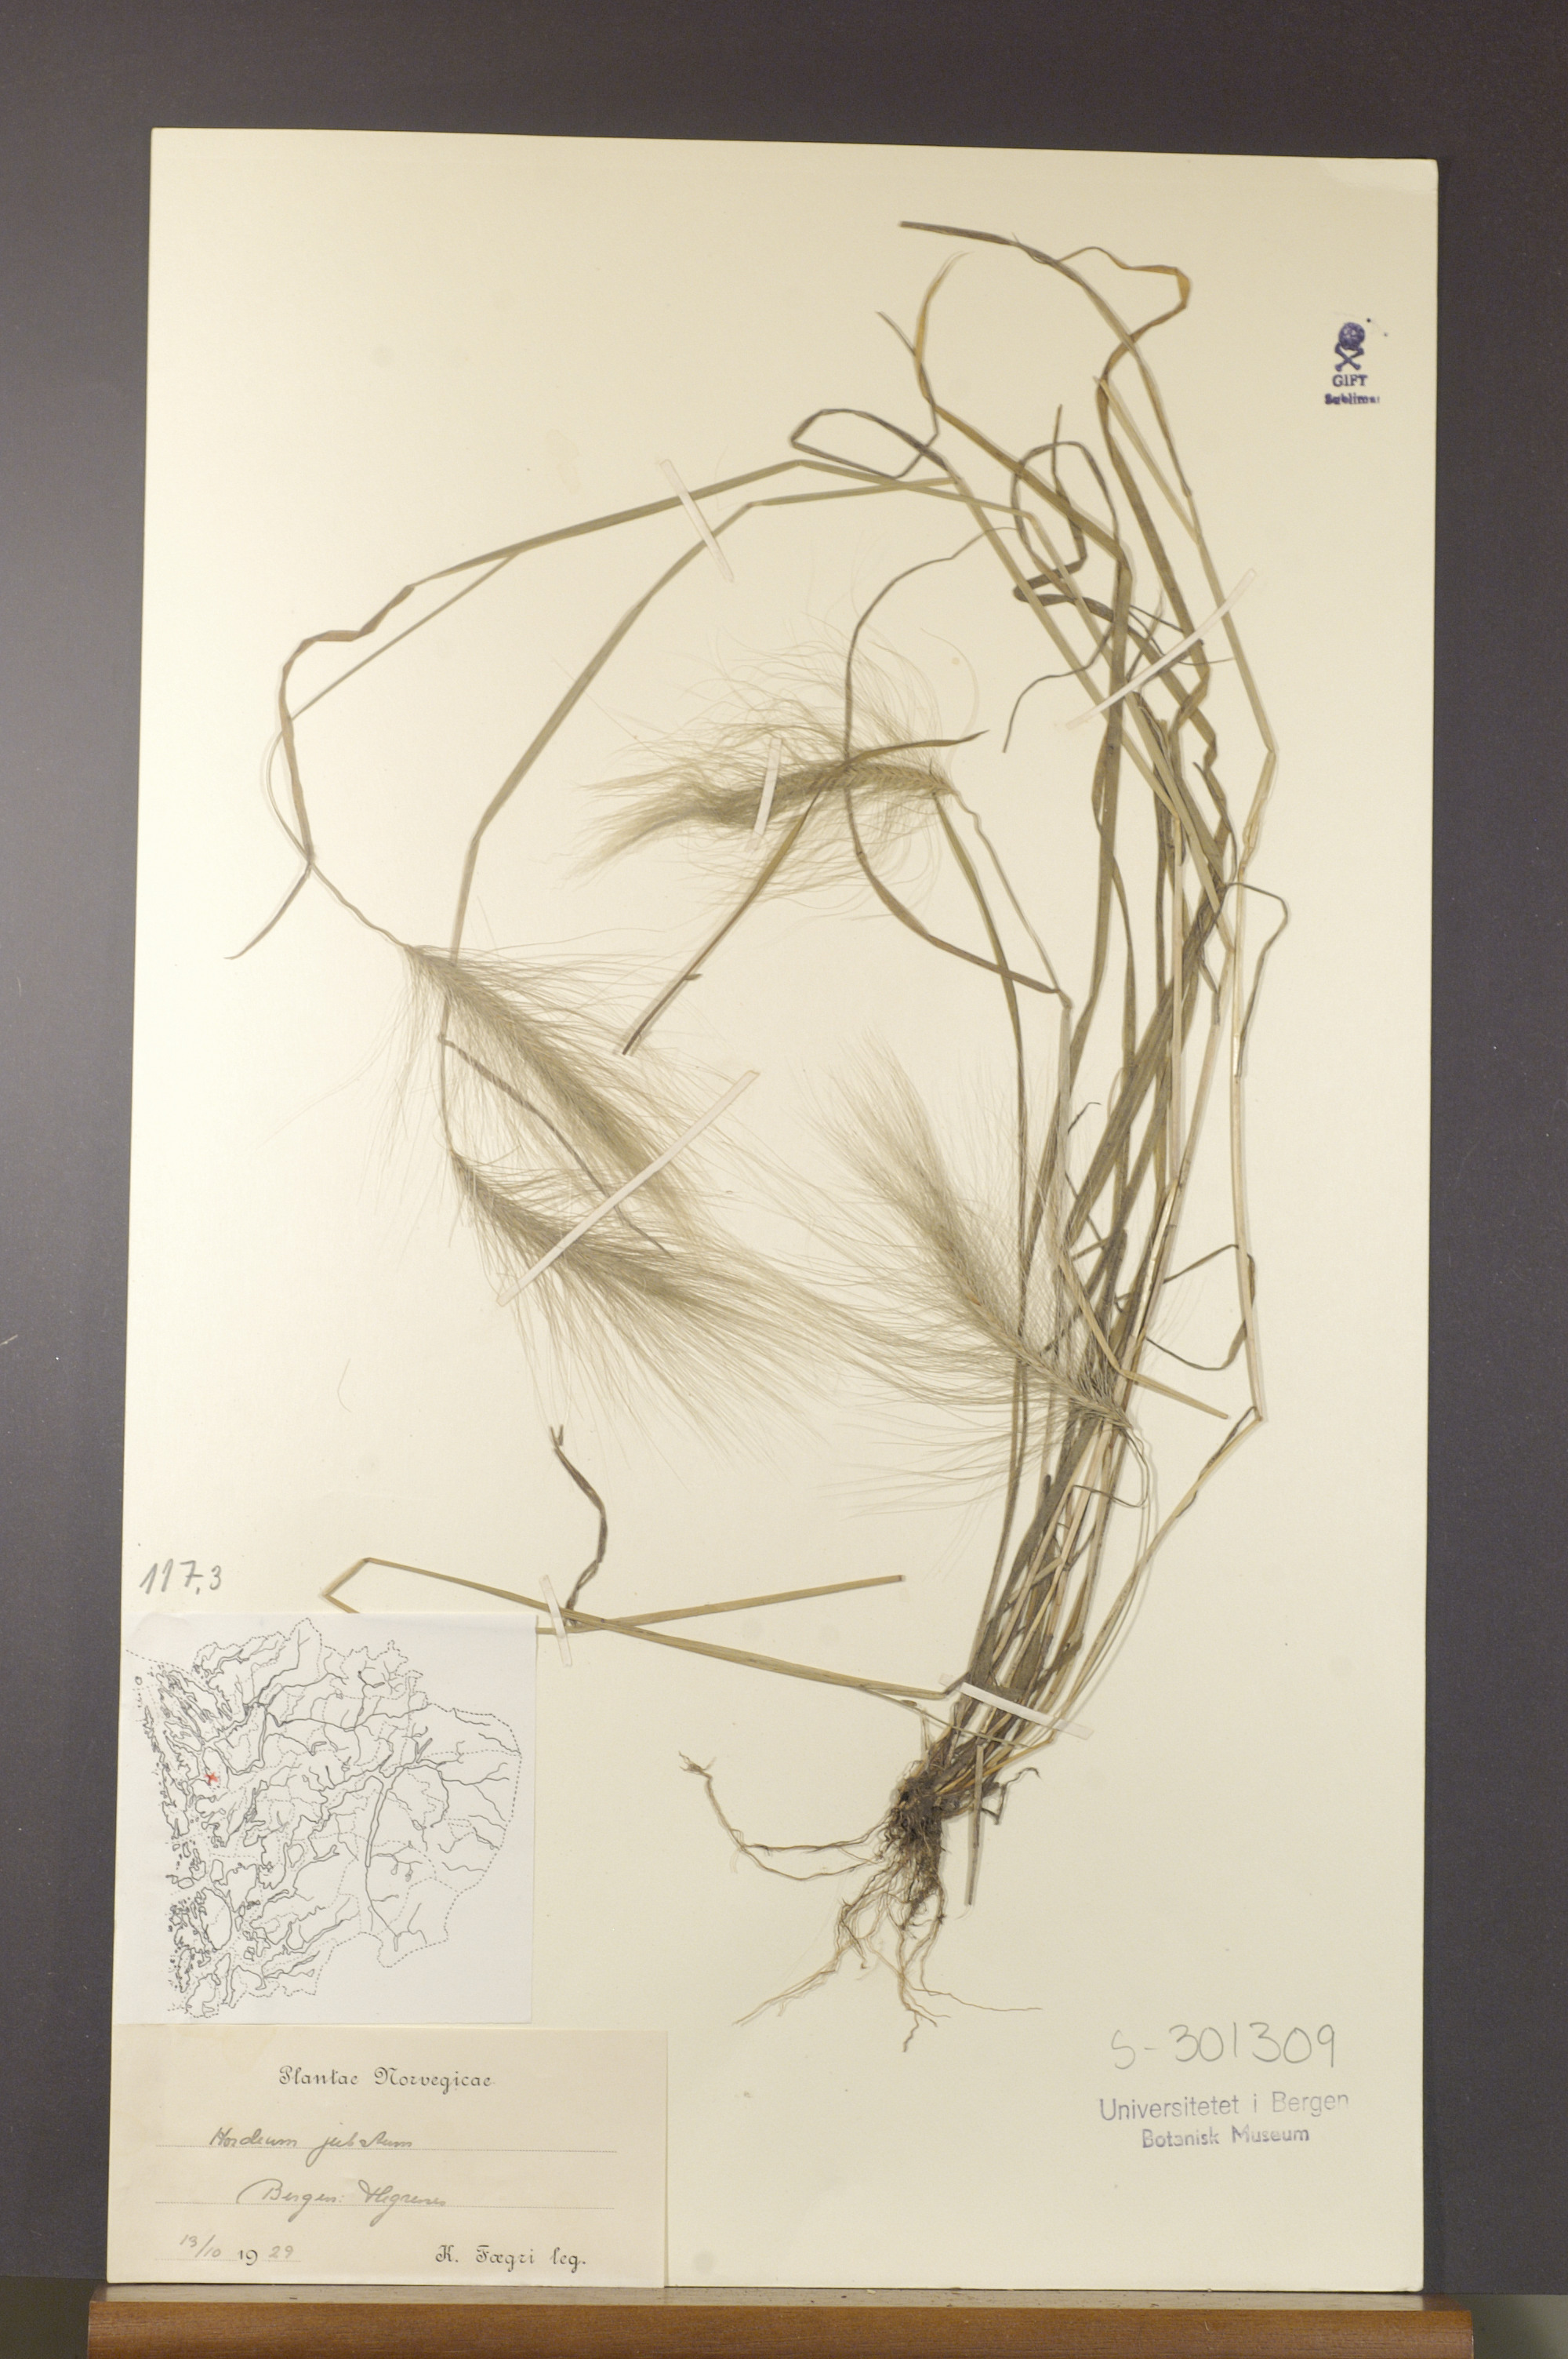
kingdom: Plantae
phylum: Tracheophyta
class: Liliopsida
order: Poales
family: Poaceae
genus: Hordeum
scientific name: Hordeum jubatum
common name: Foxtail barley
